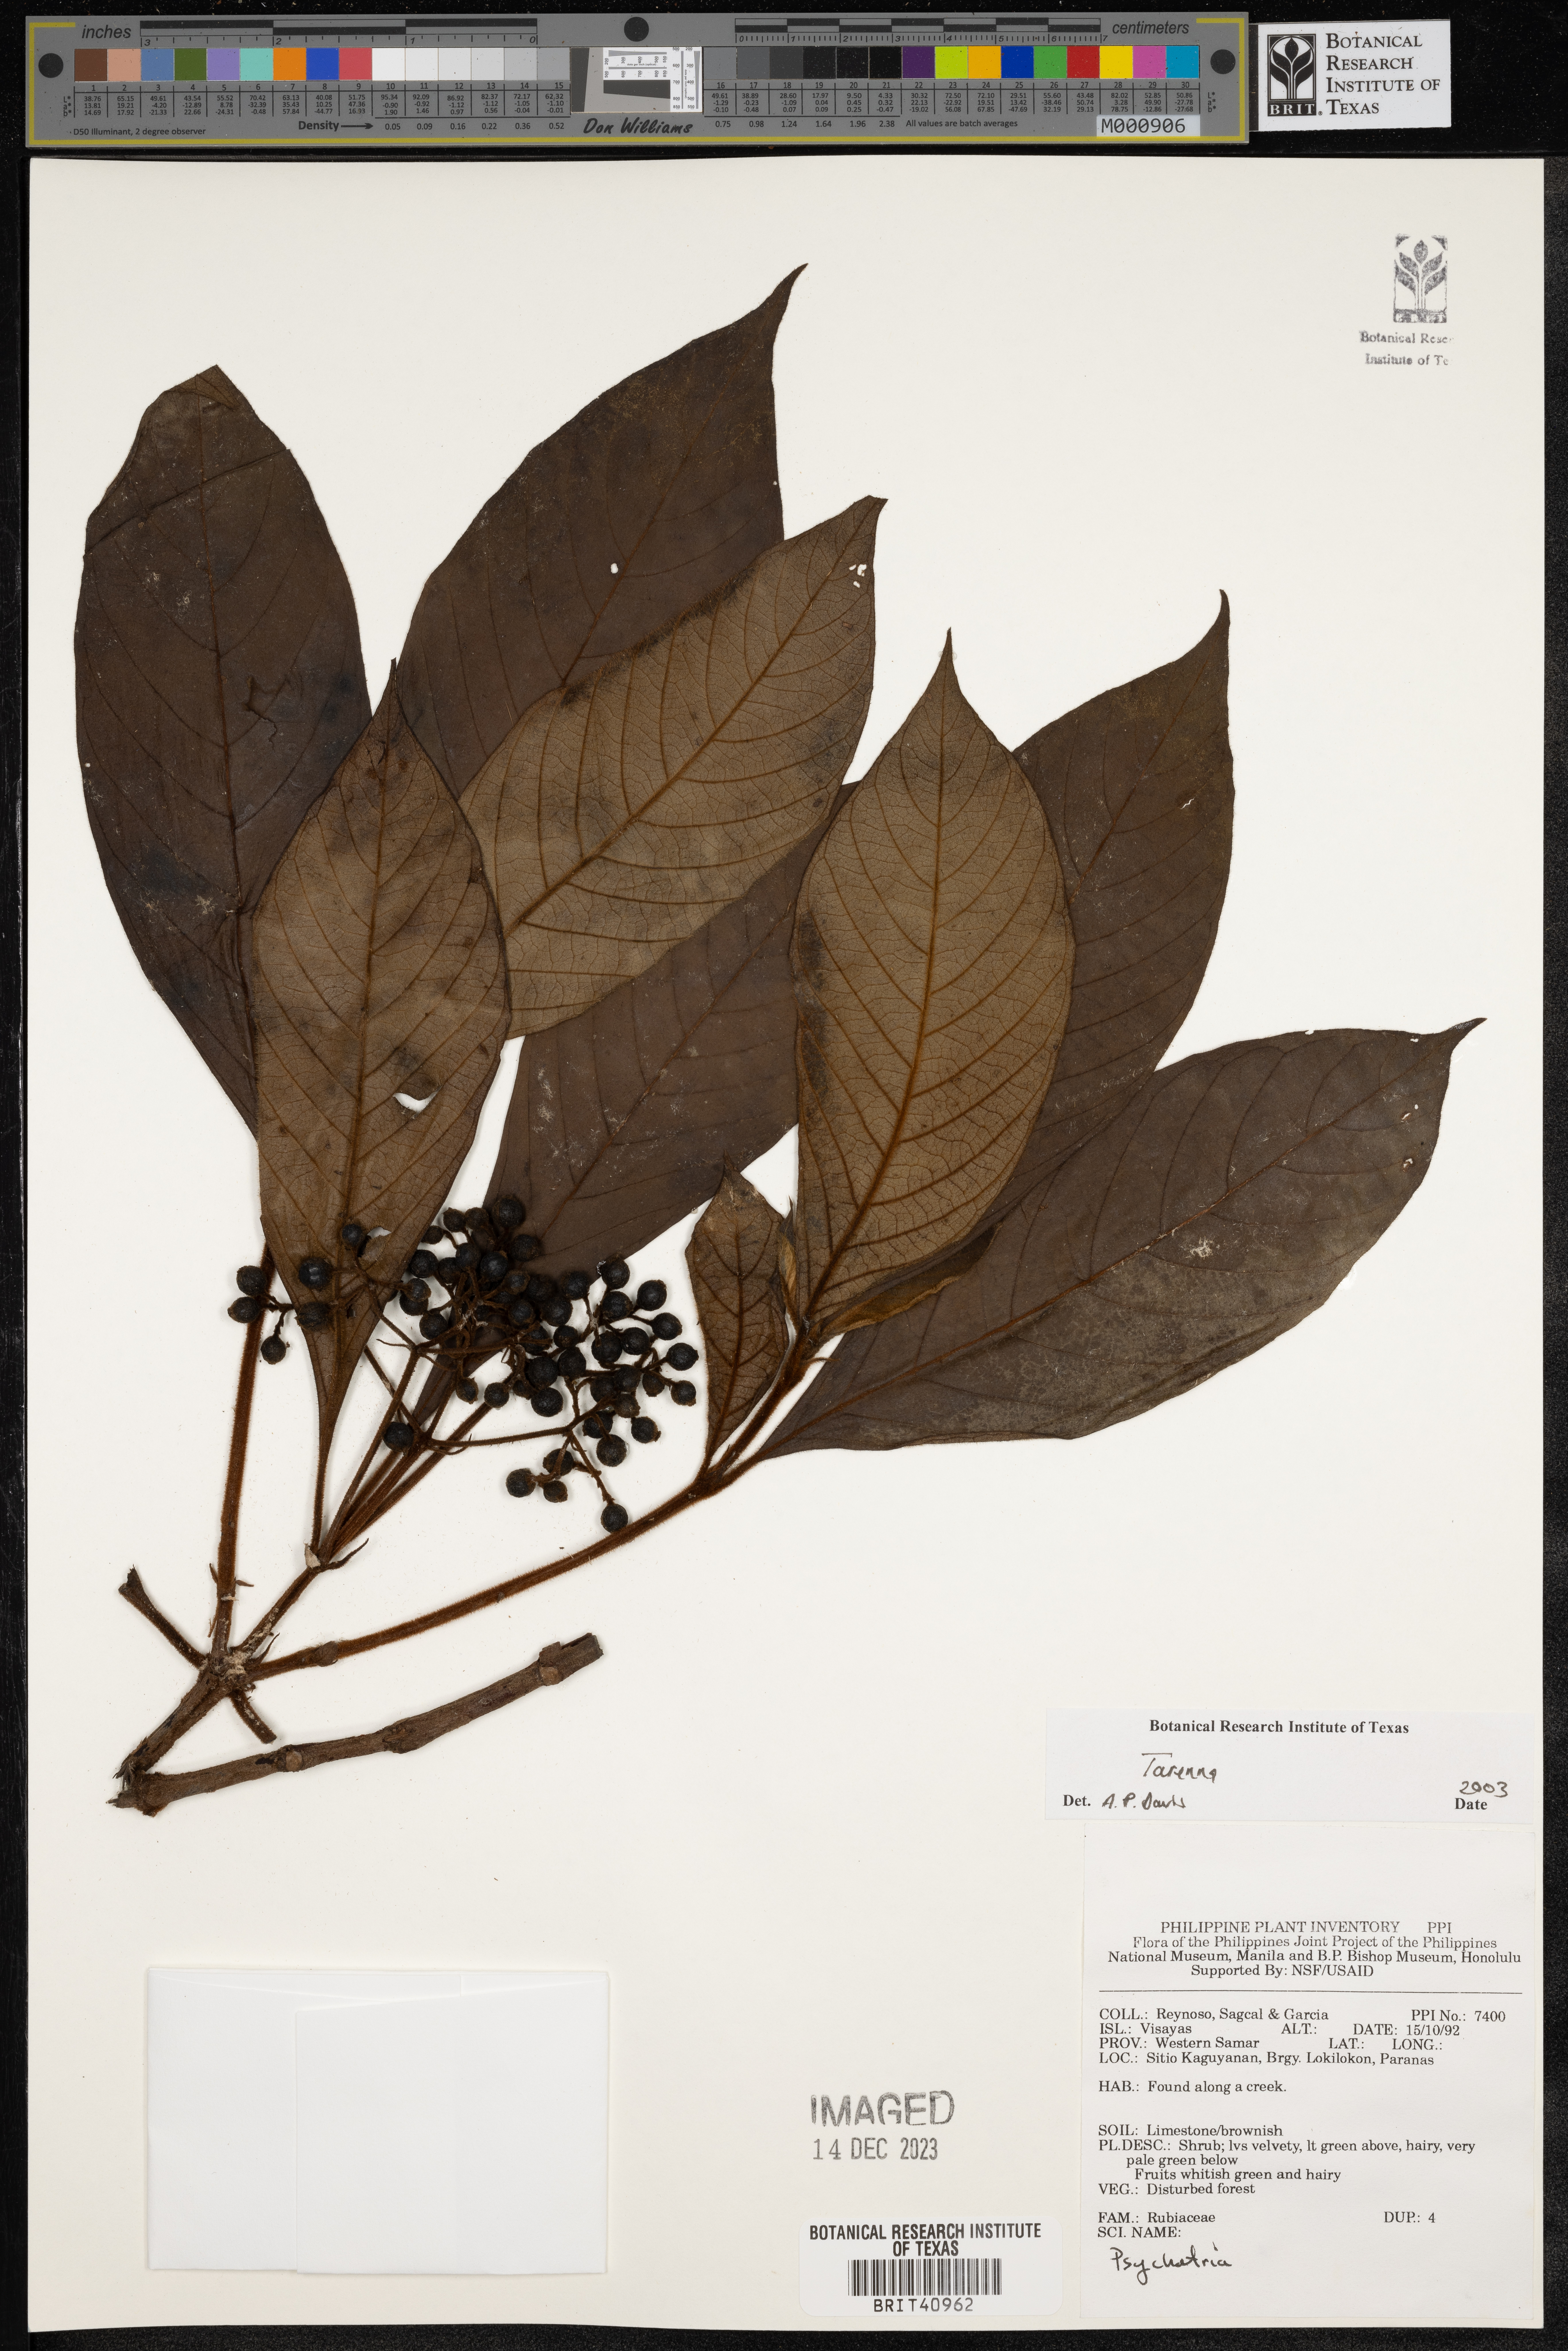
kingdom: Plantae
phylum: Tracheophyta
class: Magnoliopsida
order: Gentianales
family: Rubiaceae
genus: Tarenna
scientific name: Tarenna
